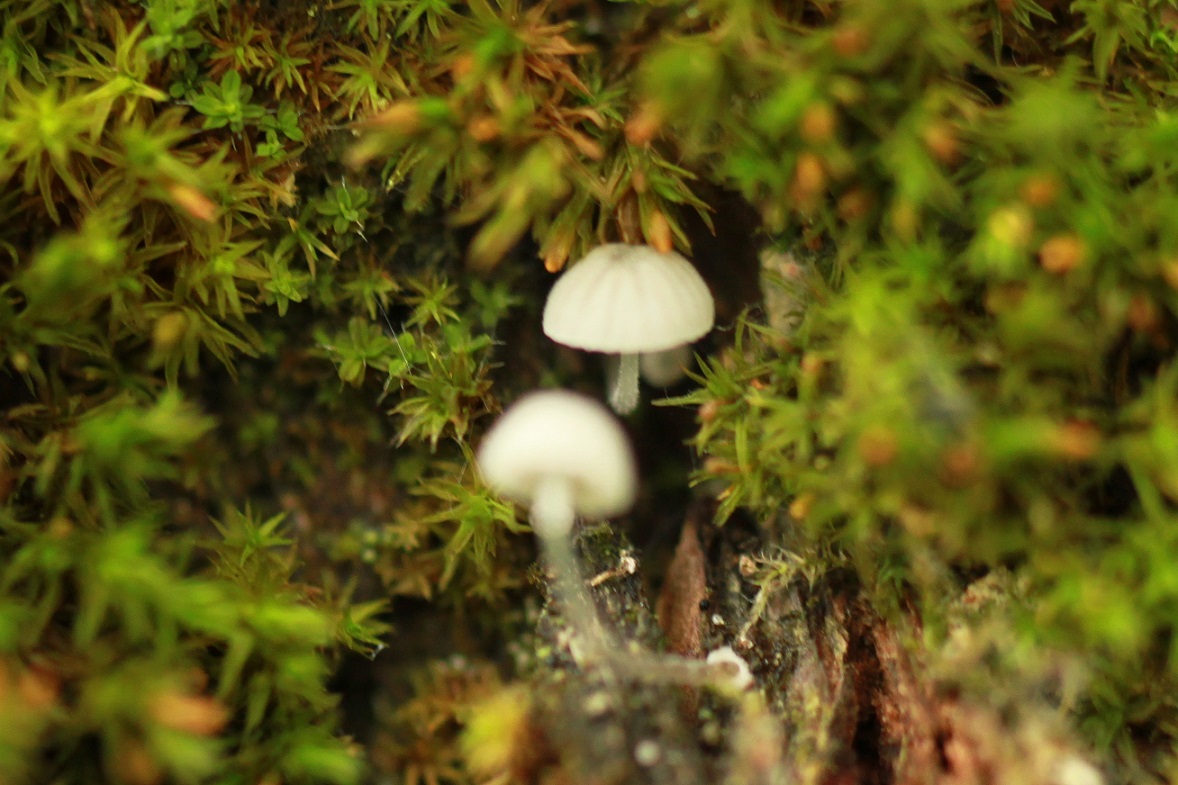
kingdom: Fungi
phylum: Basidiomycota
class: Agaricomycetes
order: Agaricales
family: Mycenaceae
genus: Mycena
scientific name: Mycena clavularis
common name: dunskivet huesvamp
